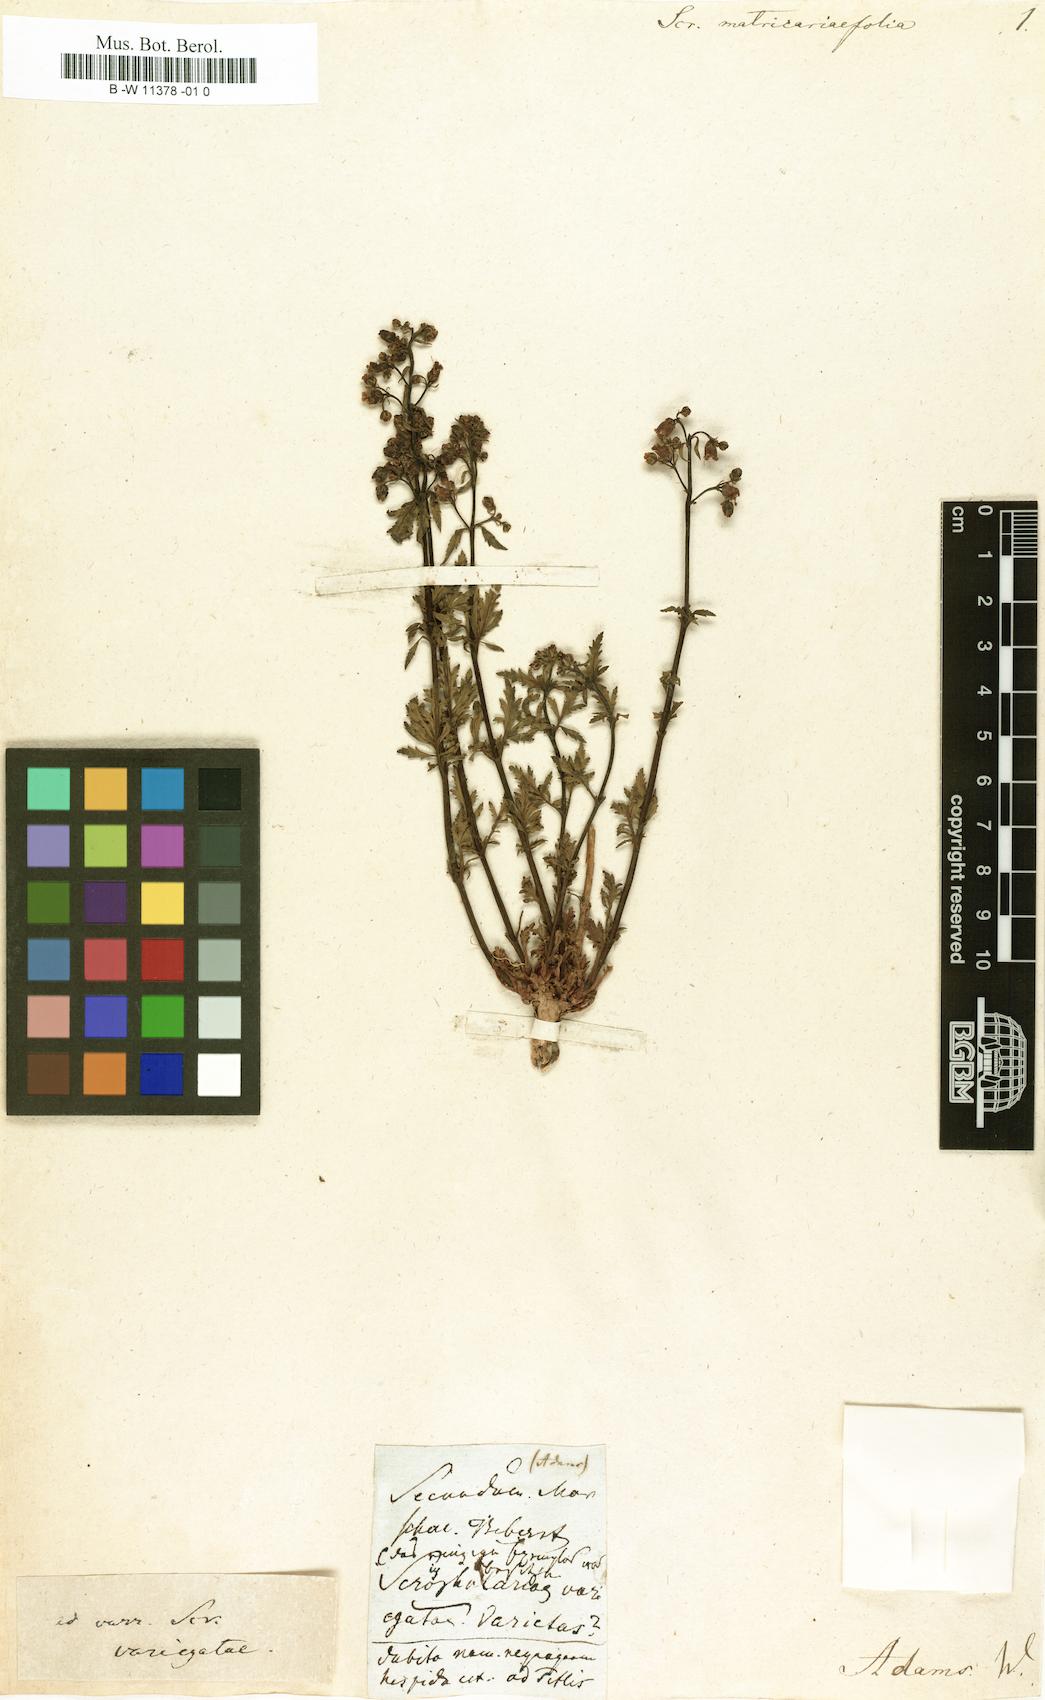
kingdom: Plantae
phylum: Tracheophyta
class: Magnoliopsida
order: Lamiales
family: Scrophulariaceae
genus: Scrophularia
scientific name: Scrophularia
